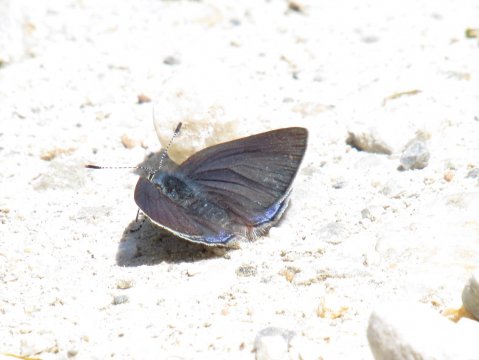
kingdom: Animalia
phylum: Arthropoda
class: Insecta
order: Lepidoptera
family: Lycaenidae
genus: Erora
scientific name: Erora laeta
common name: Early Hairstreak
